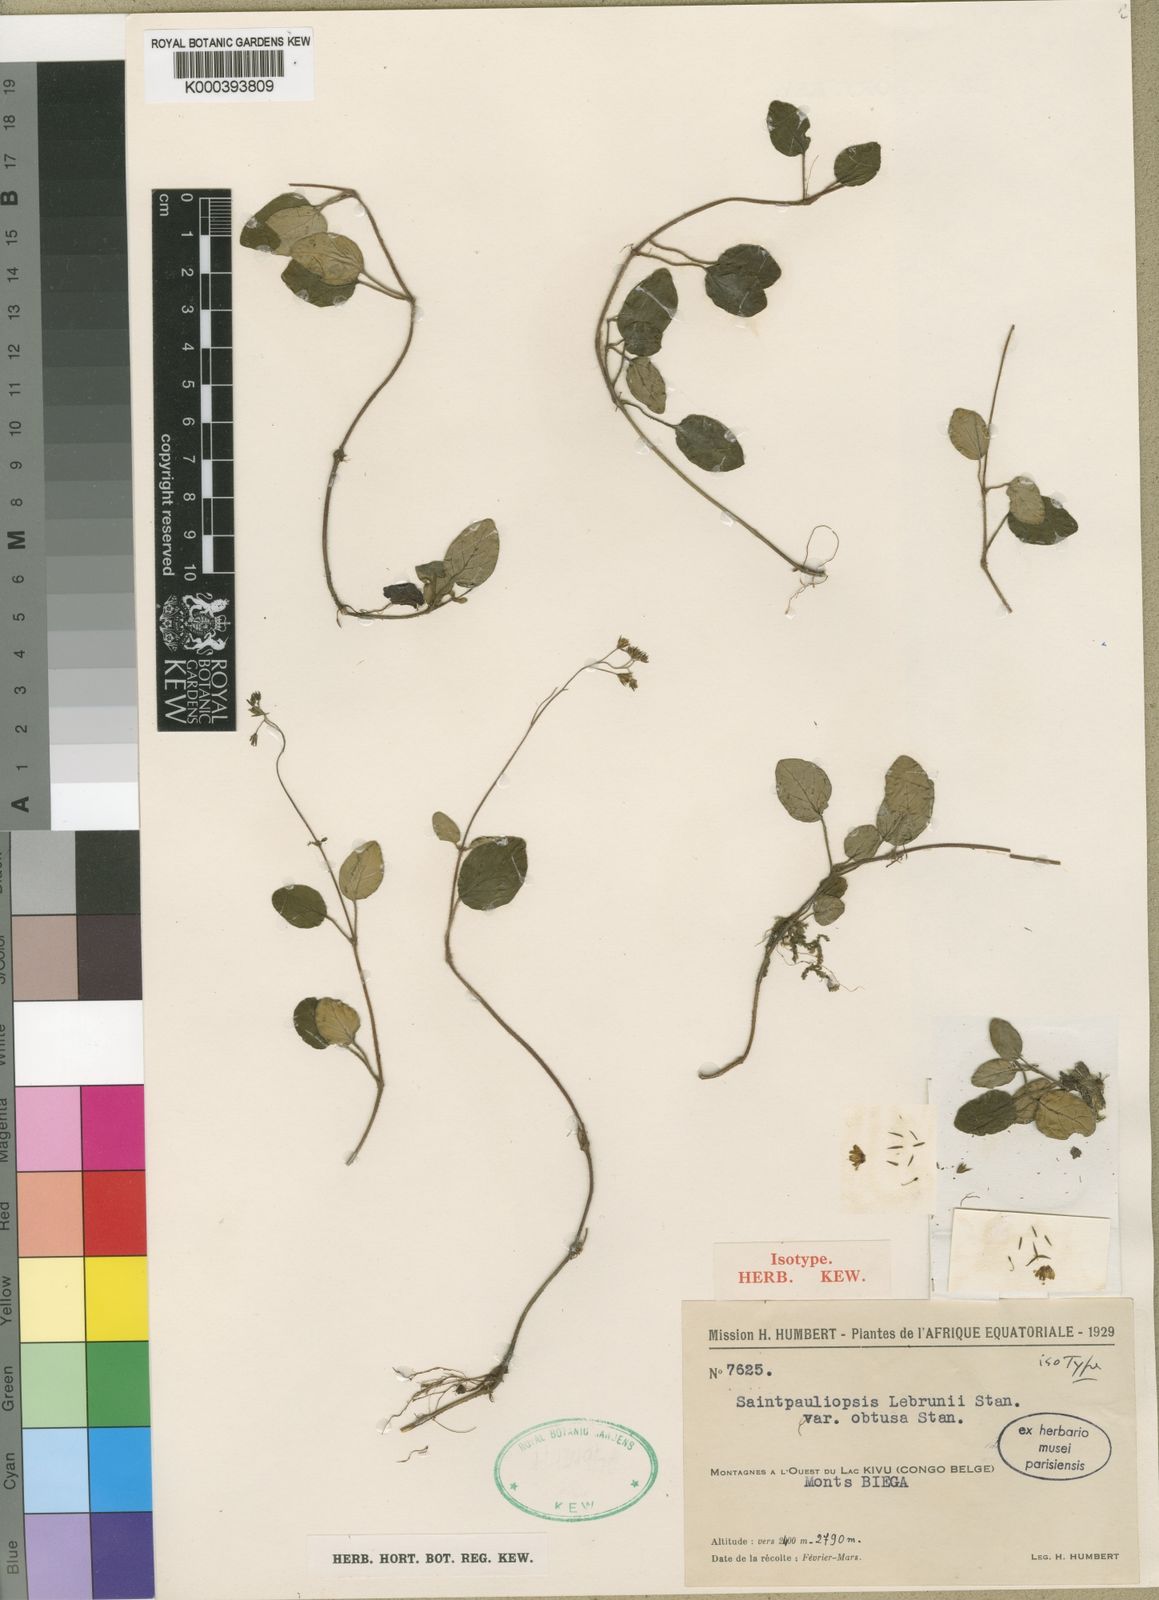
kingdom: Plantae
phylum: Tracheophyta
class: Magnoliopsida
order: Lamiales
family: Acanthaceae
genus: Saintpauliopsis
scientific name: Saintpauliopsis lebrunii
